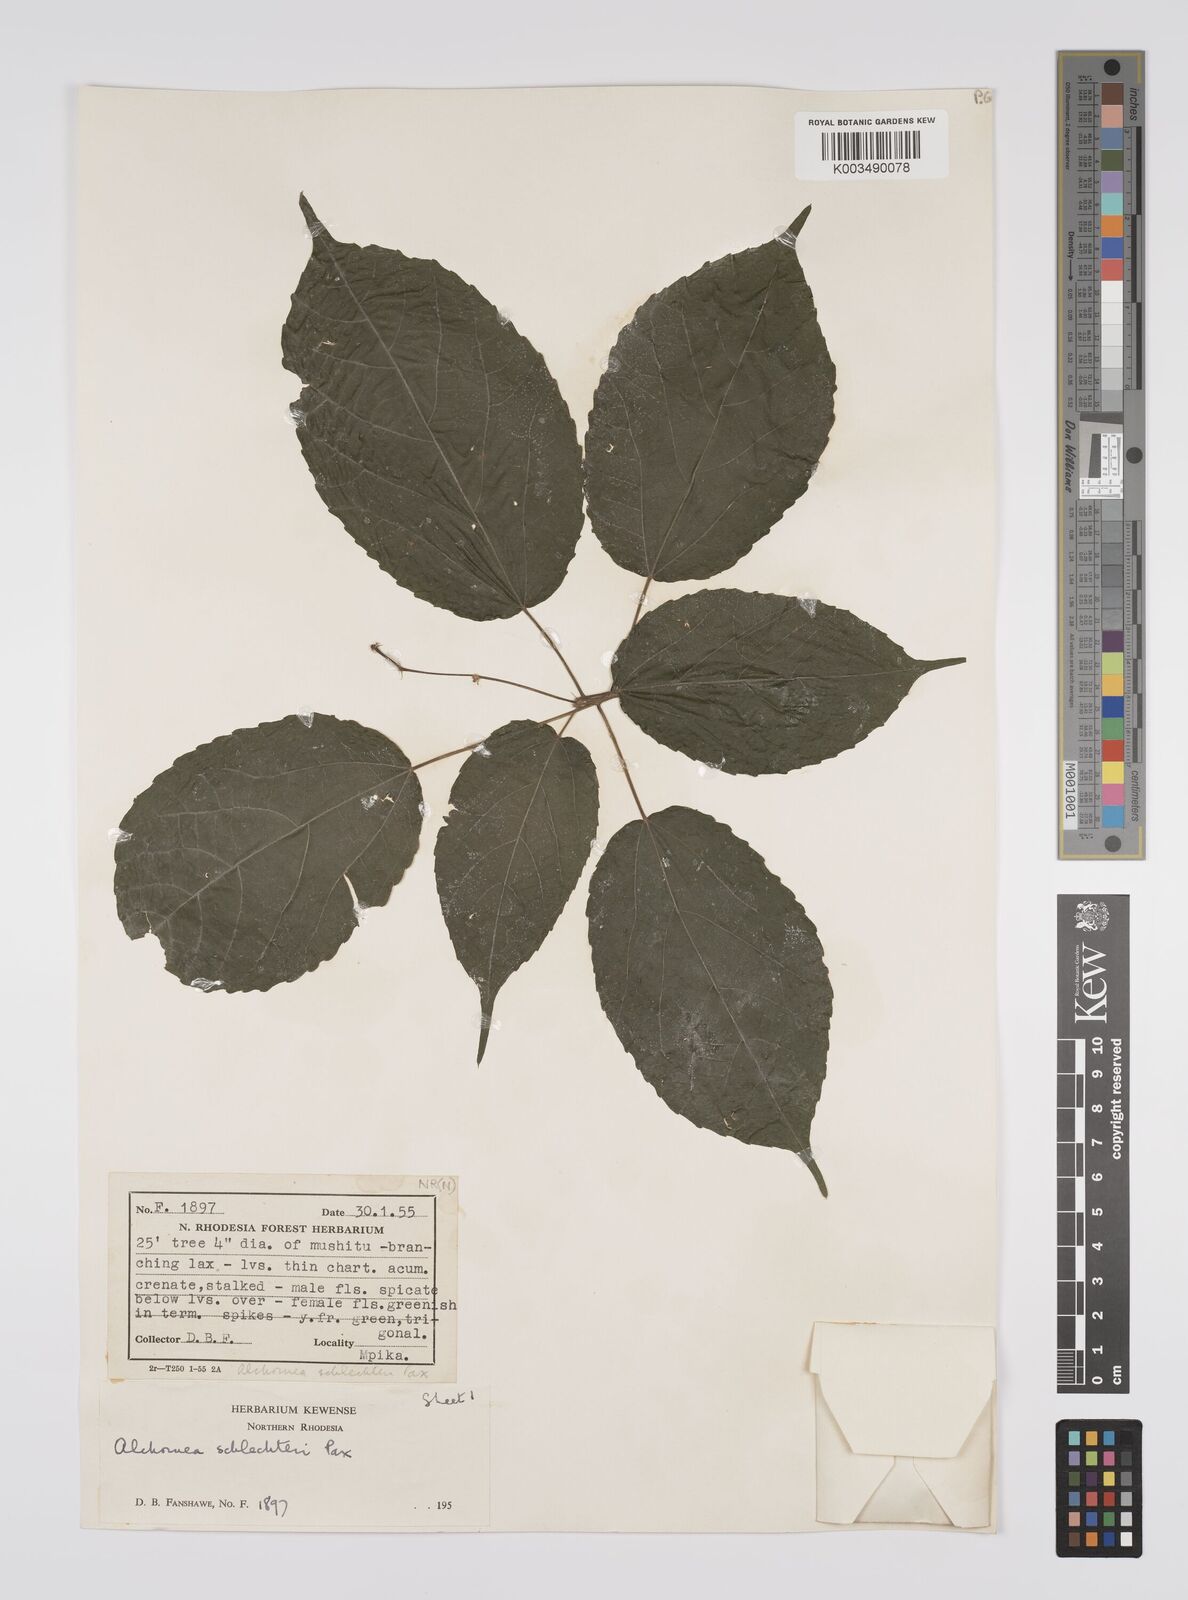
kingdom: Plantae
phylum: Tracheophyta
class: Magnoliopsida
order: Malpighiales
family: Euphorbiaceae
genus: Alchornea
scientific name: Alchornea laxiflora
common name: Lowveld bead-string
